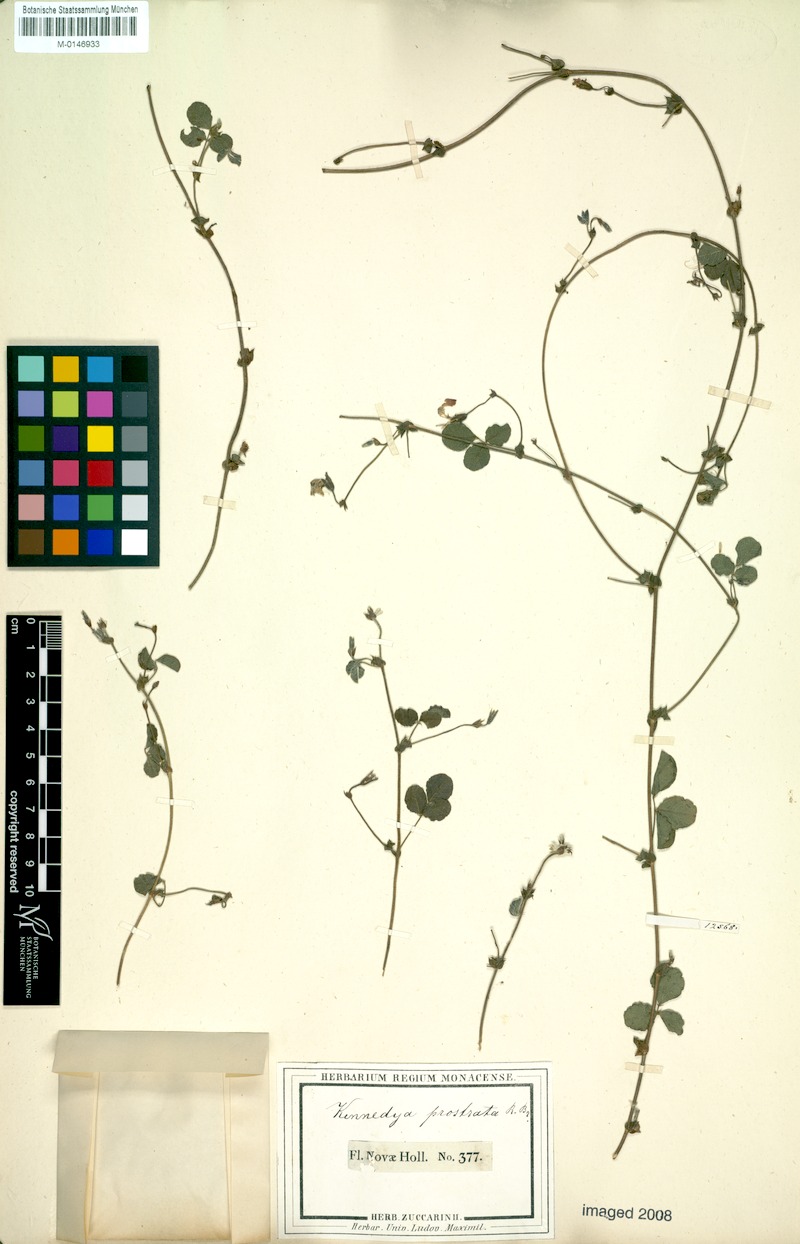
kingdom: Plantae
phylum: Tracheophyta
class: Magnoliopsida
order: Fabales
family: Fabaceae
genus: Kennedia
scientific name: Kennedia prostrata
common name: Running-postman
